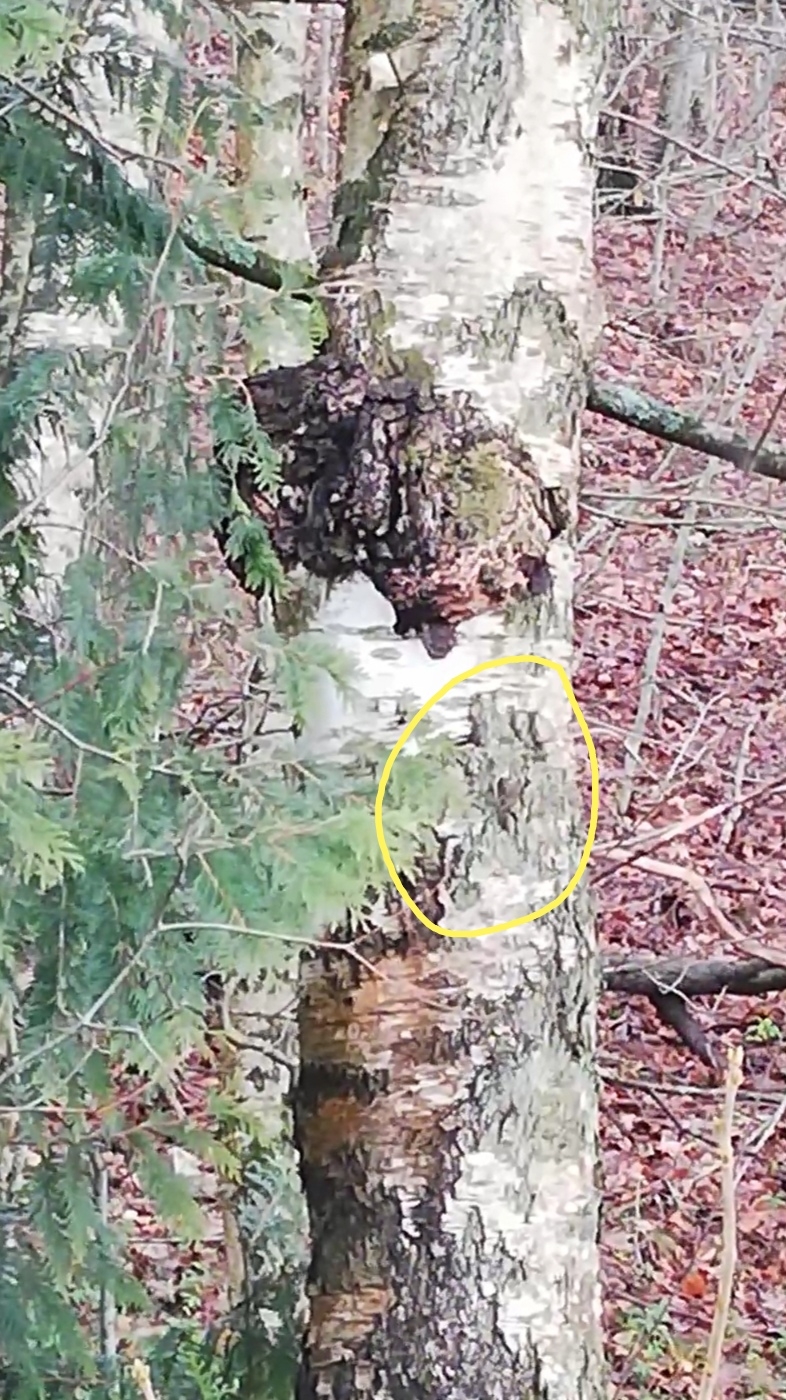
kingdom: Animalia
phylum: Chordata
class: Aves
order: Passeriformes
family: Certhiidae
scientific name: Certhiidae
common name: Træløbere
